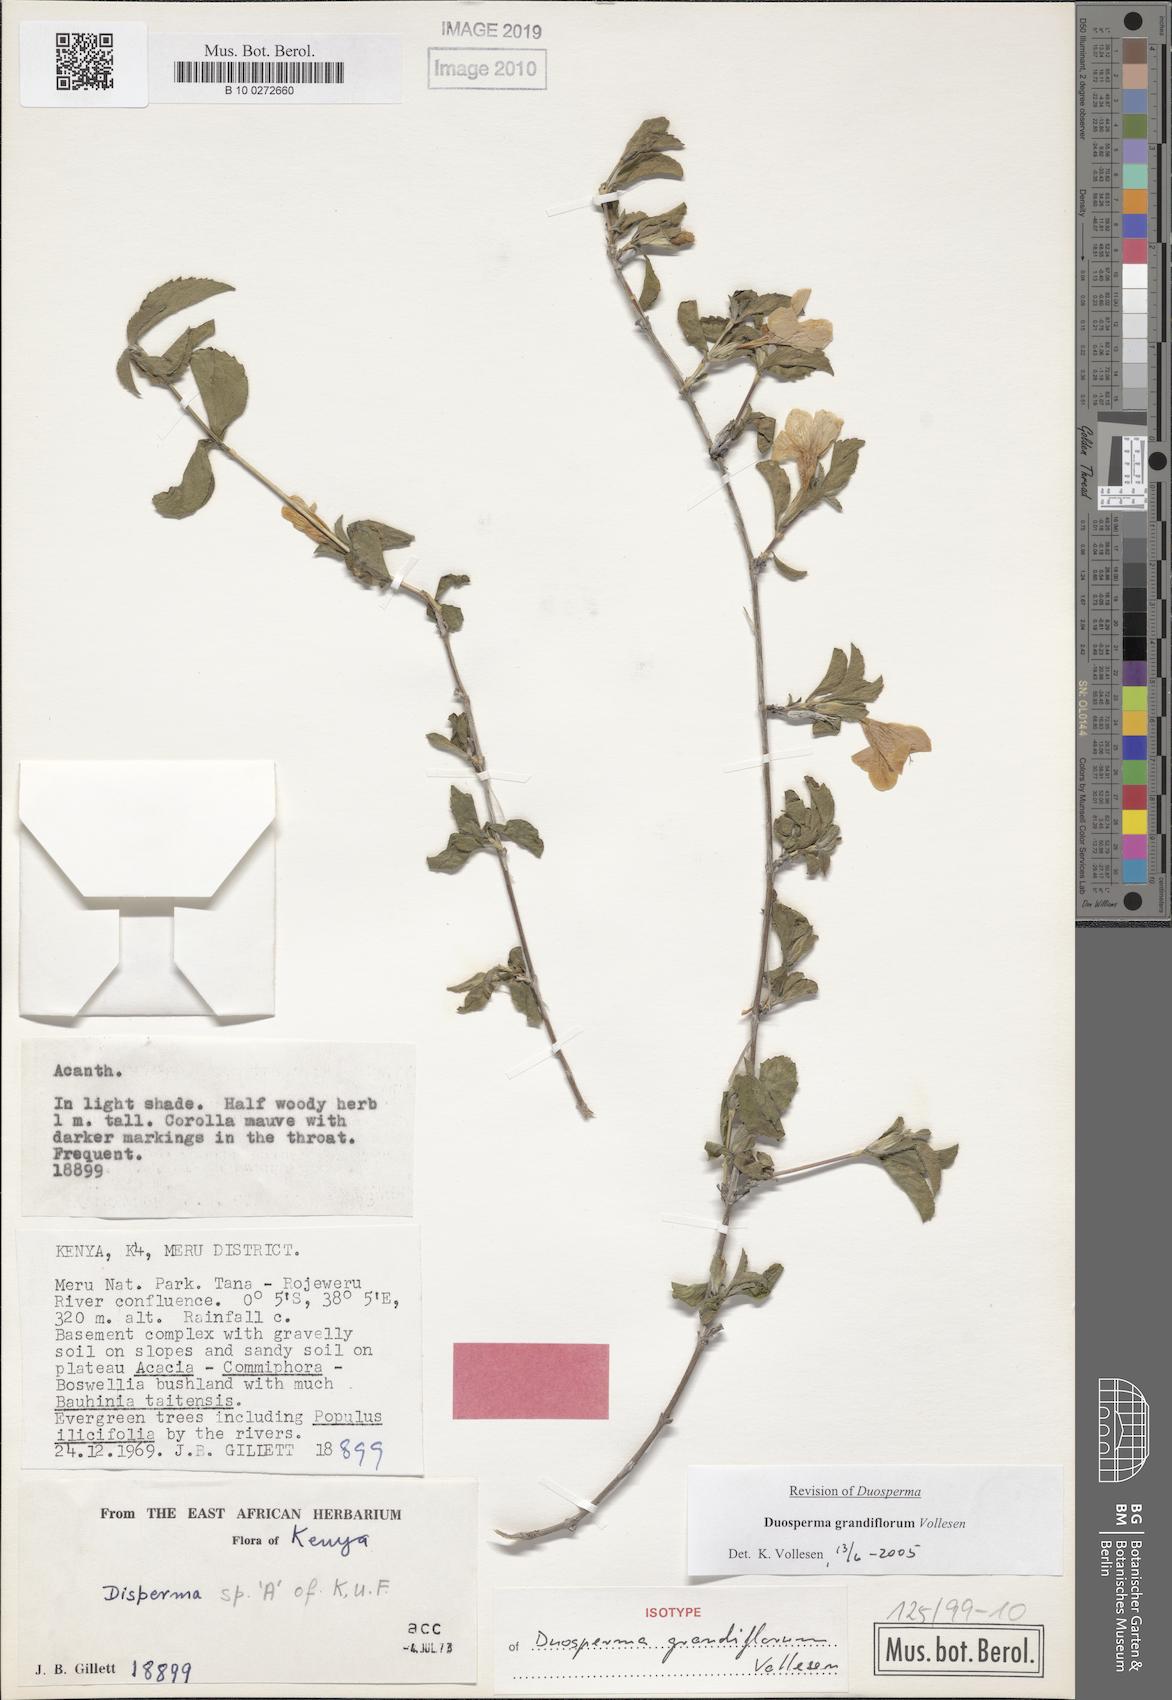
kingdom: Plantae
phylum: Tracheophyta
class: Magnoliopsida
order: Lamiales
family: Acanthaceae
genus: Duosperma
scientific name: Duosperma grandiflorum
